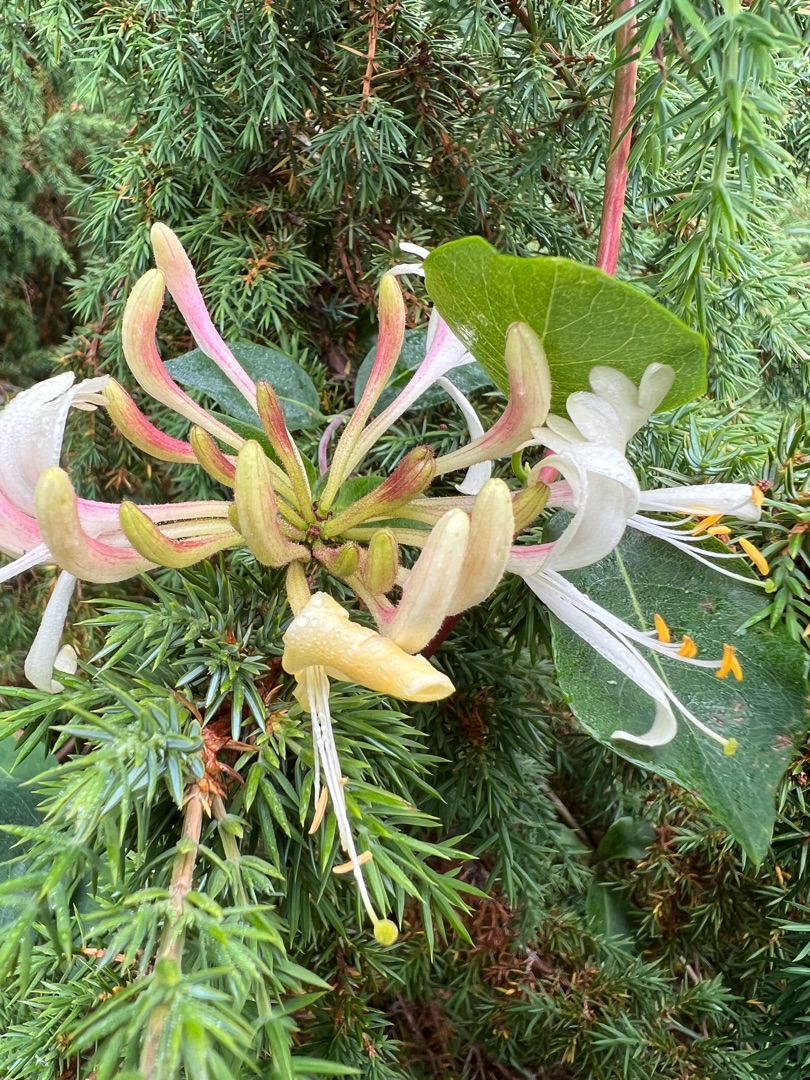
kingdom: Plantae
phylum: Tracheophyta
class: Magnoliopsida
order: Dipsacales
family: Caprifoliaceae
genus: Lonicera
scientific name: Lonicera periclymenum
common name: Almindelig gedeblad
